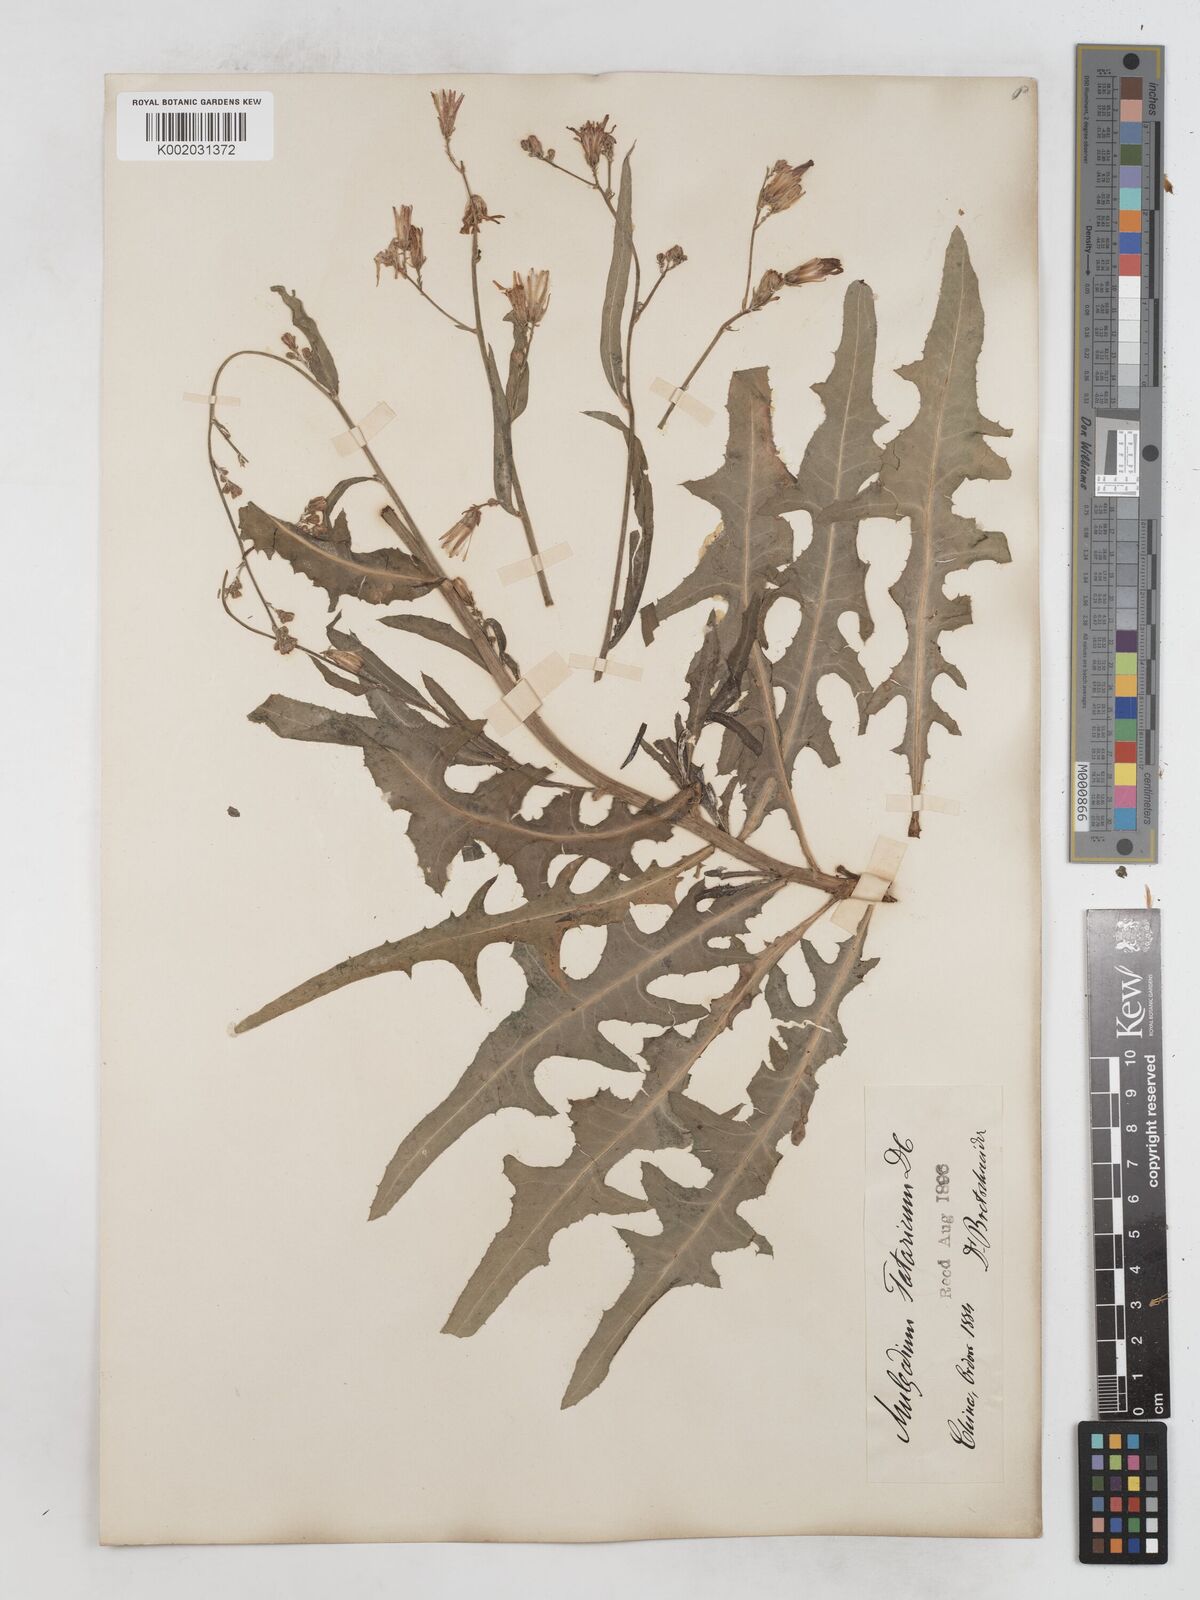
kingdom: Plantae
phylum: Tracheophyta
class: Magnoliopsida
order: Asterales
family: Asteraceae
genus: Lactuca
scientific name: Lactuca tatarica
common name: Blue lettuce
